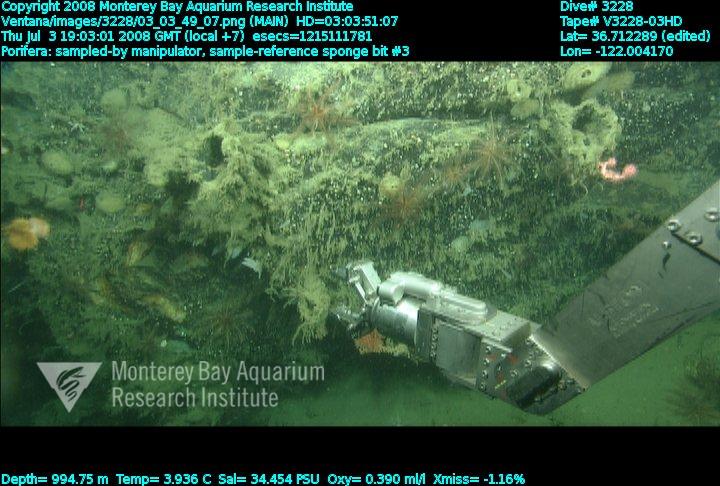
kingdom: Animalia
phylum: Porifera
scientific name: Porifera
